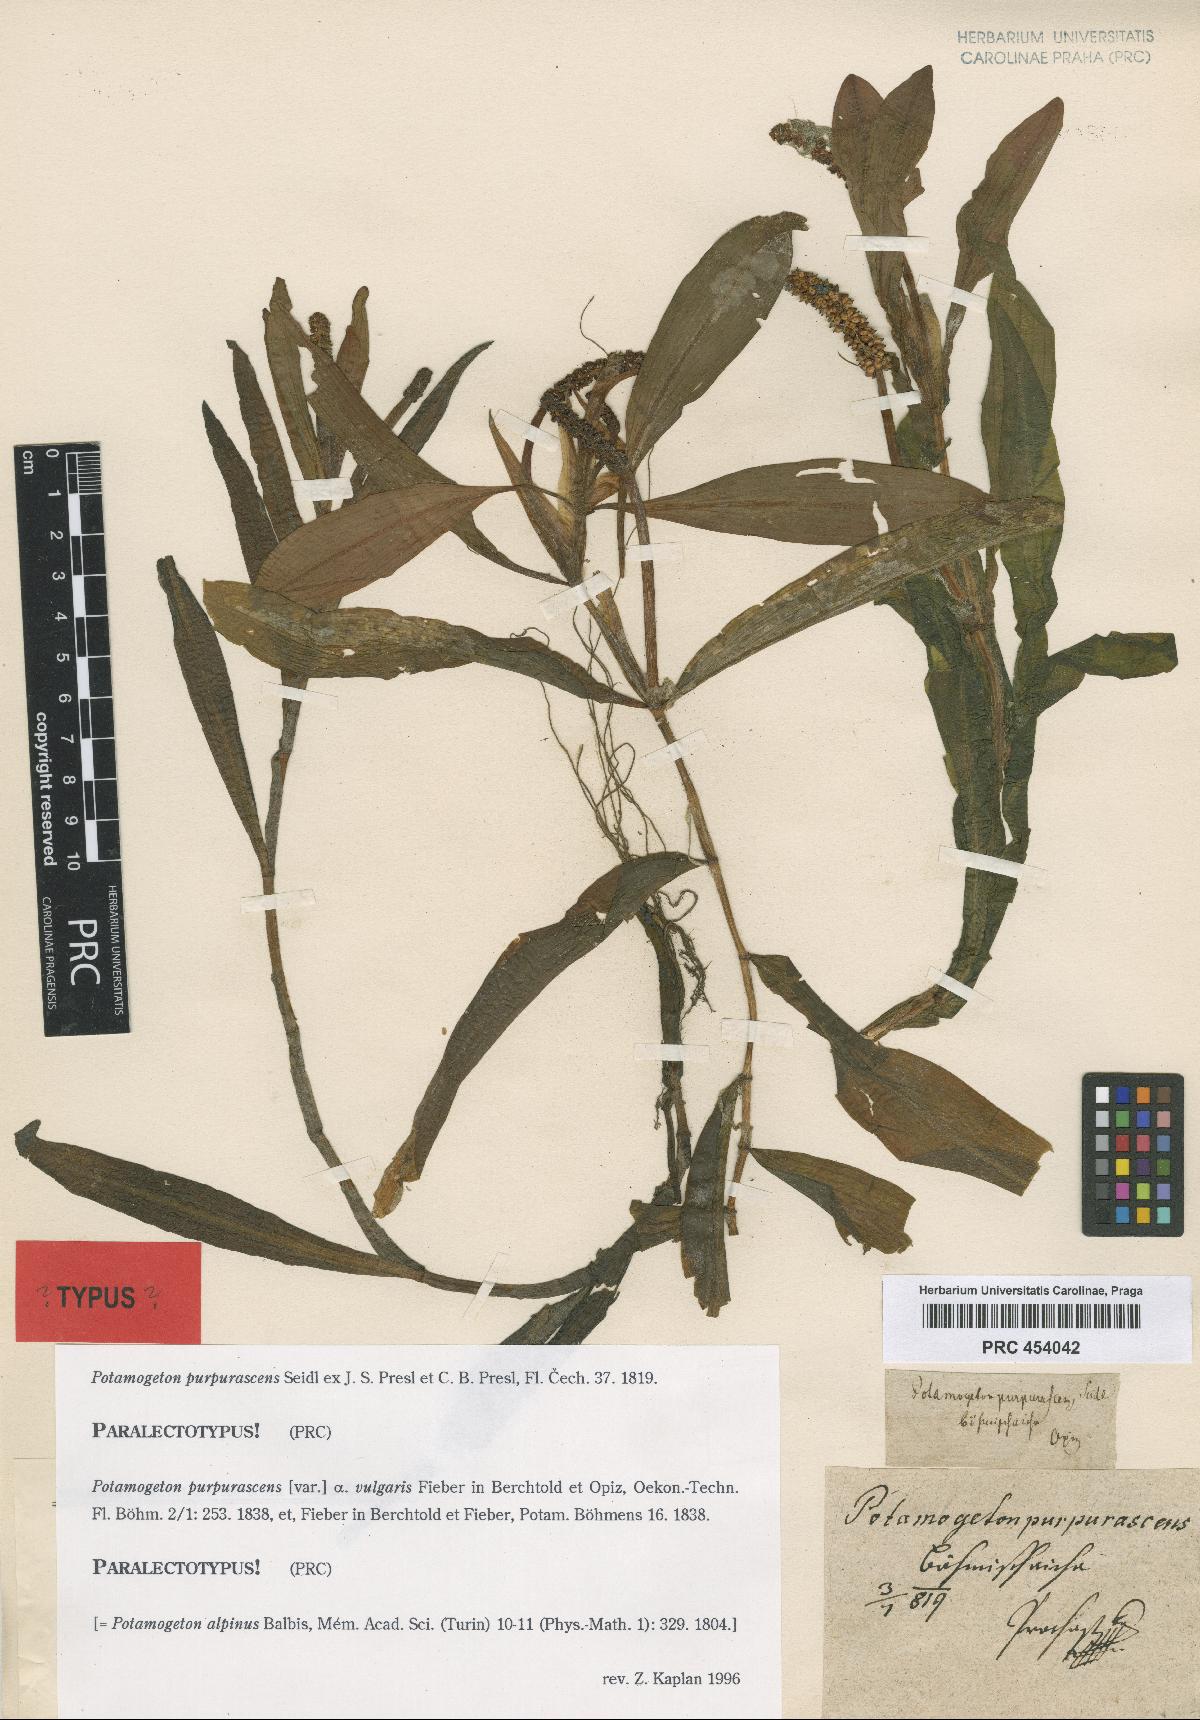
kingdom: Plantae
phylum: Tracheophyta
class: Liliopsida
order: Alismatales
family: Potamogetonaceae
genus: Potamogeton
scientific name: Potamogeton alpinus
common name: Red pondweed
